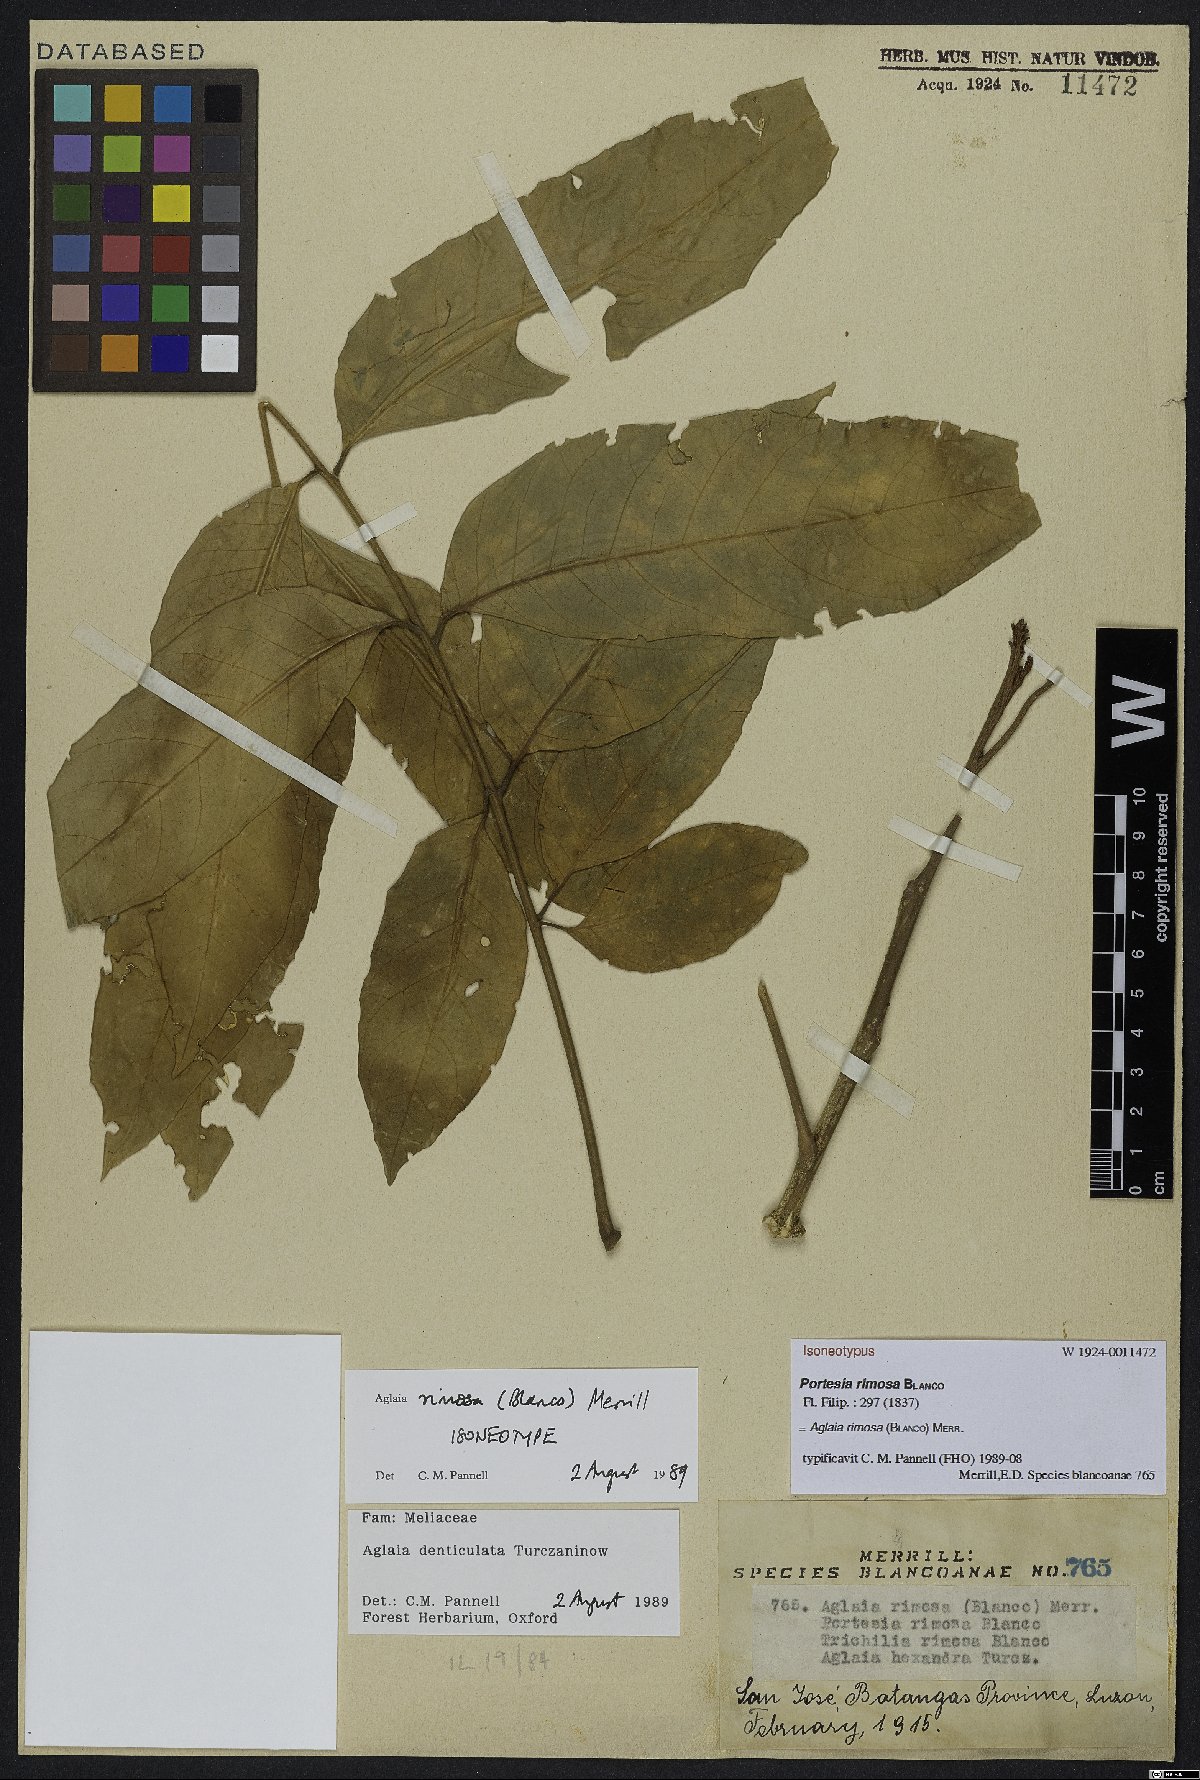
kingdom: Plantae
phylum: Tracheophyta
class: Magnoliopsida
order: Sapindales
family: Meliaceae
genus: Aglaia
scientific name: Aglaia rimosa
